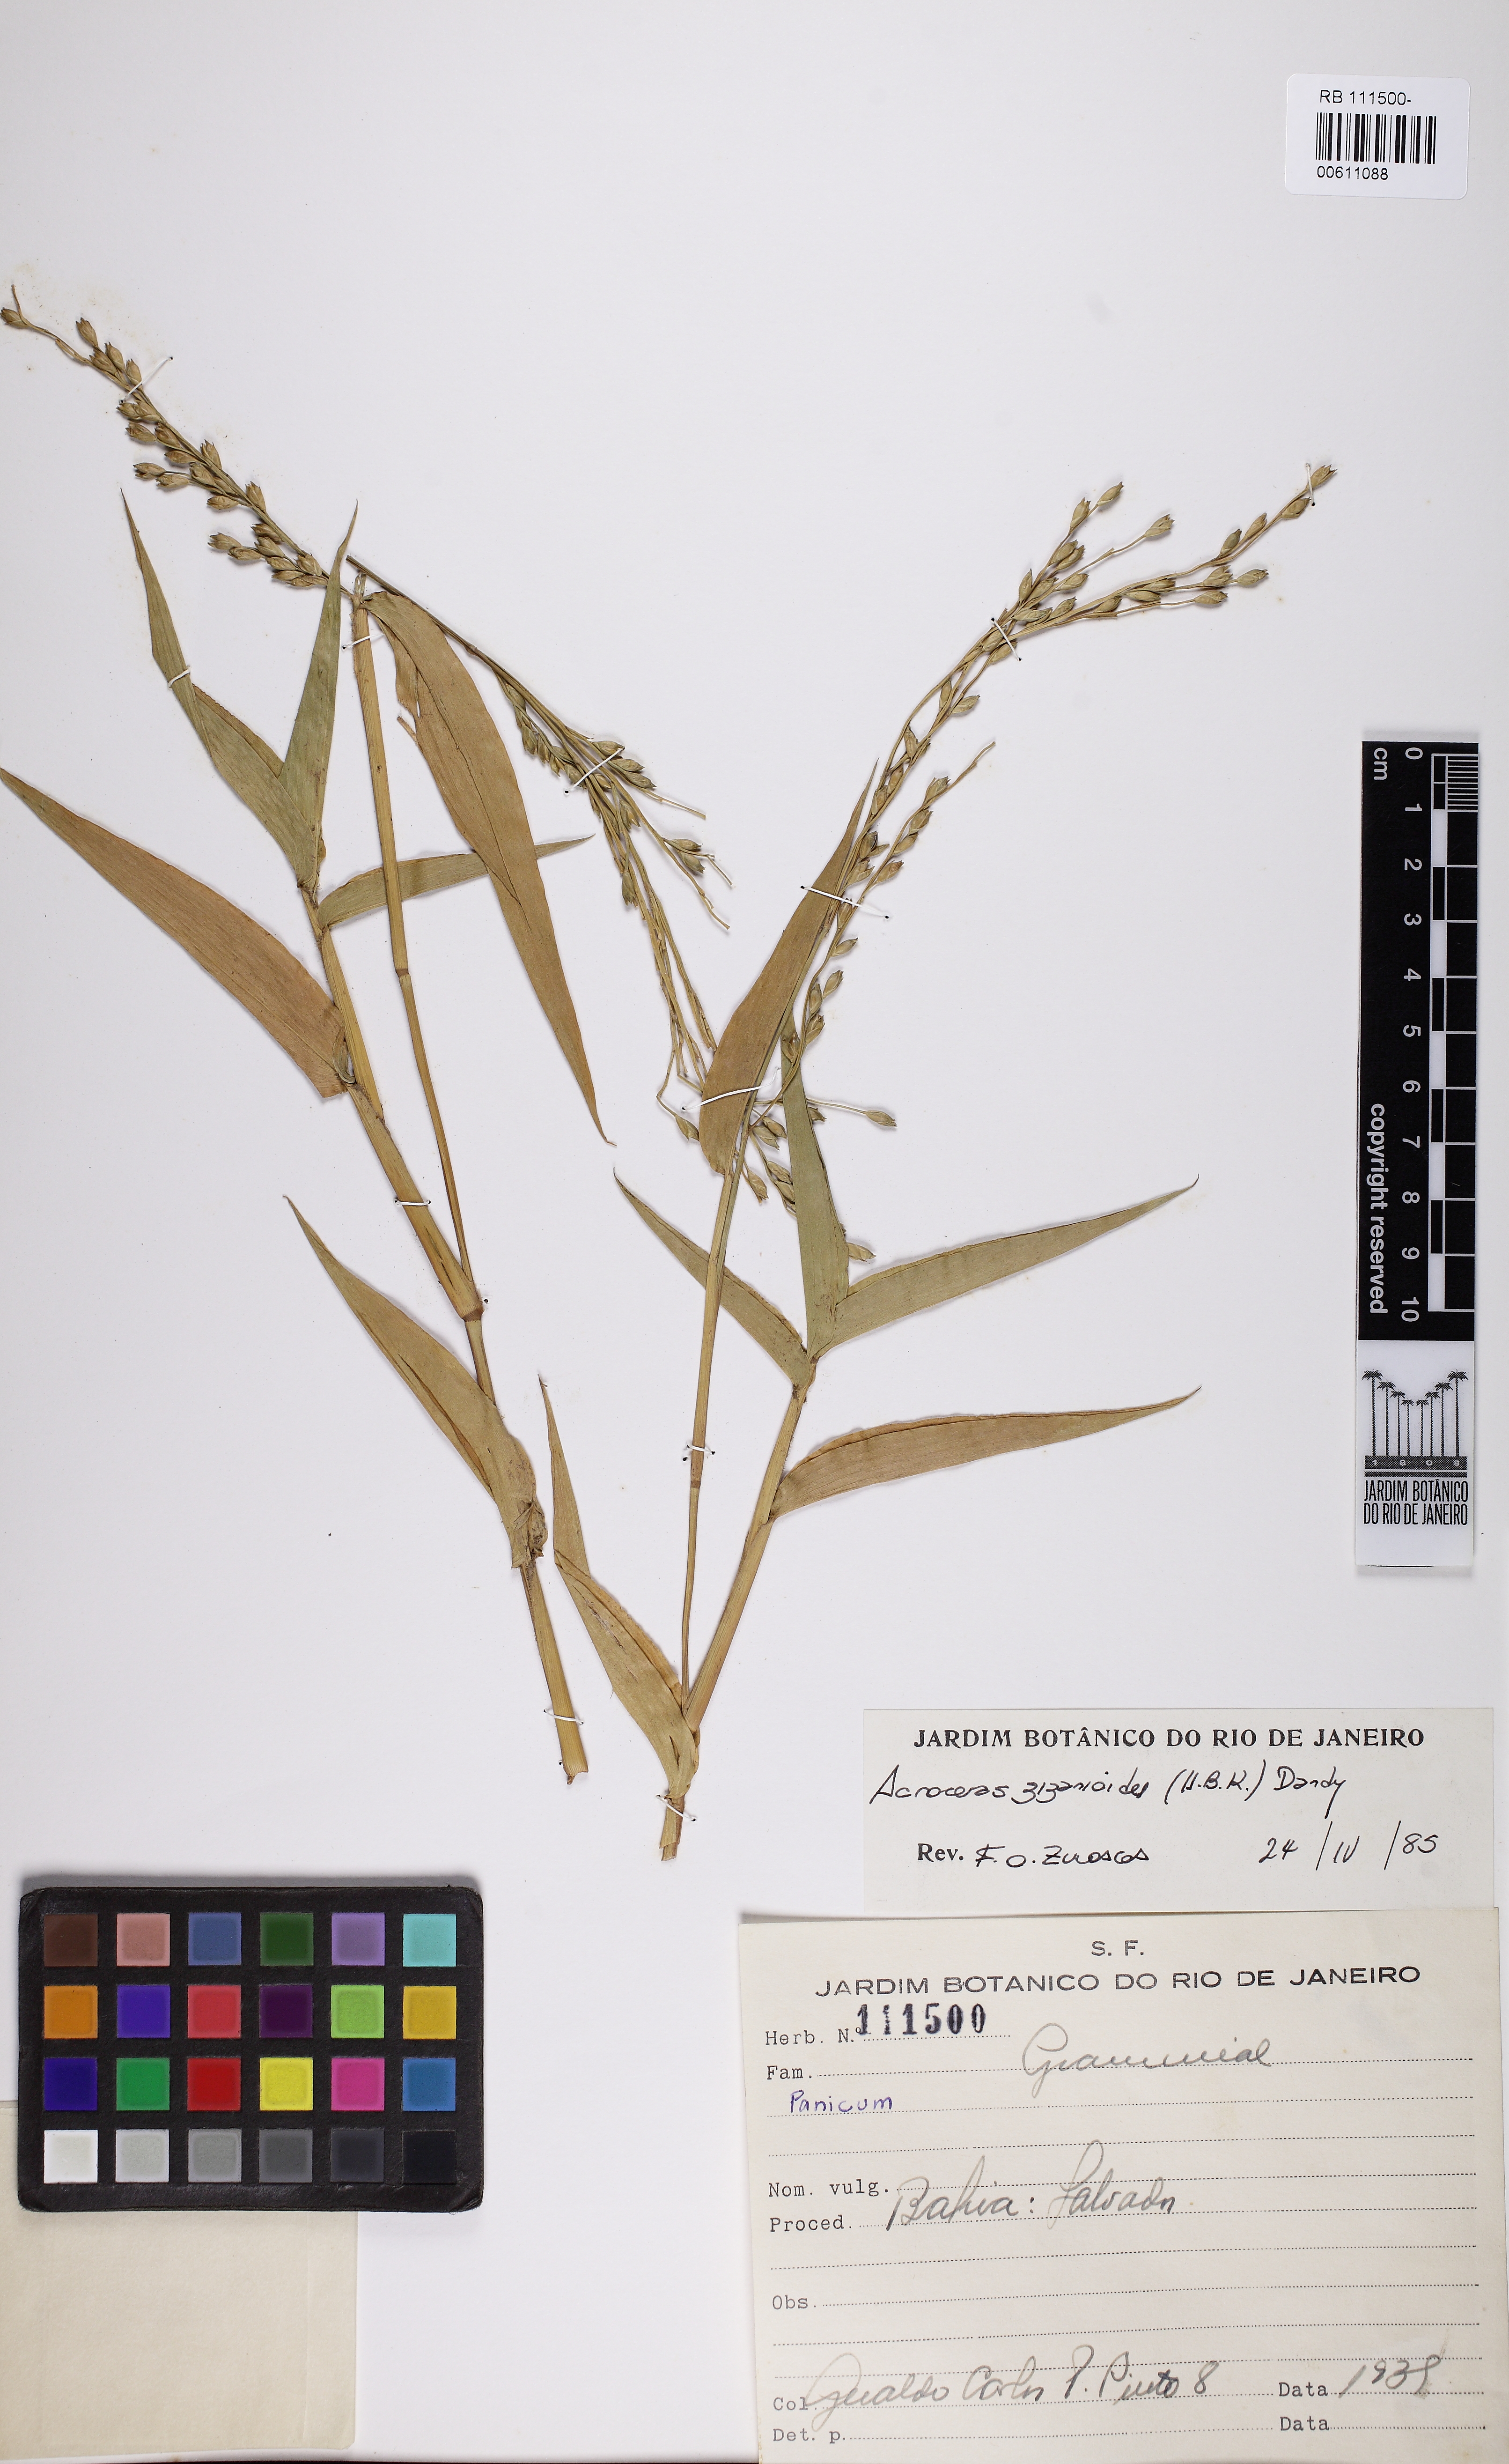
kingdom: Plantae
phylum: Tracheophyta
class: Liliopsida
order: Poales
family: Poaceae
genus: Acroceras
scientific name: Acroceras zizanioides
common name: Oat grass
